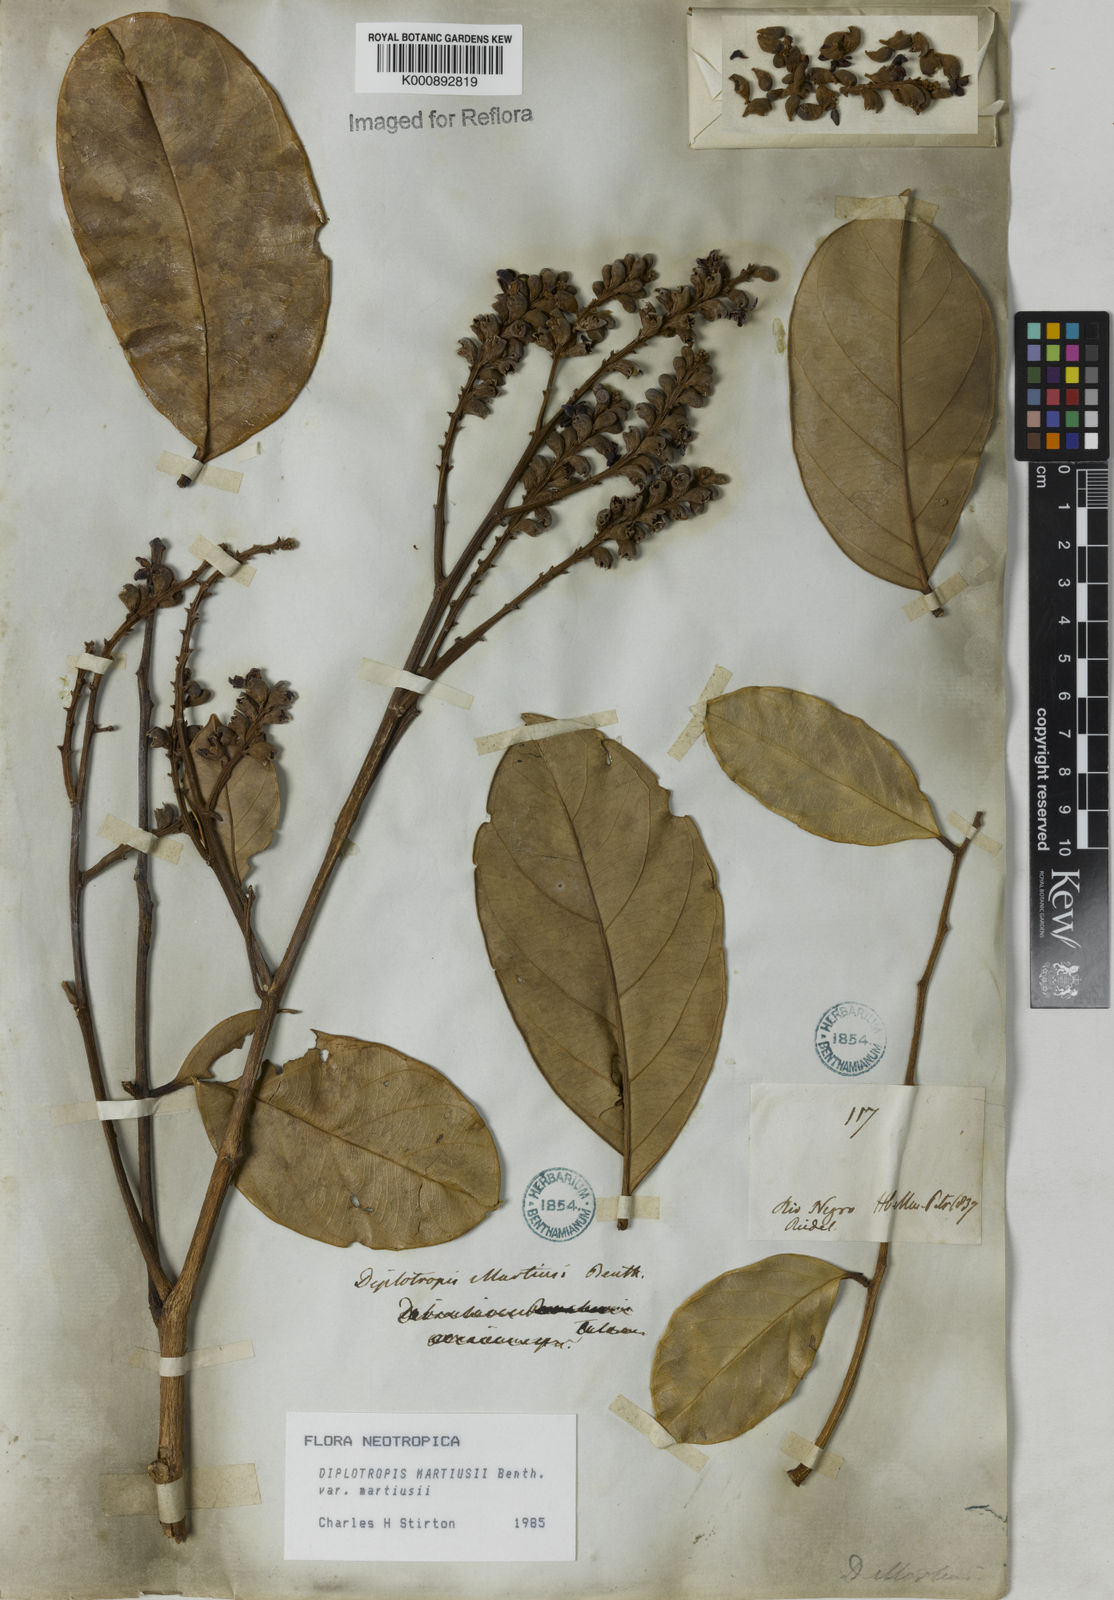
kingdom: Plantae
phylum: Tracheophyta
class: Magnoliopsida
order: Fabales
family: Fabaceae
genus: Diplotropis
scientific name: Diplotropis
